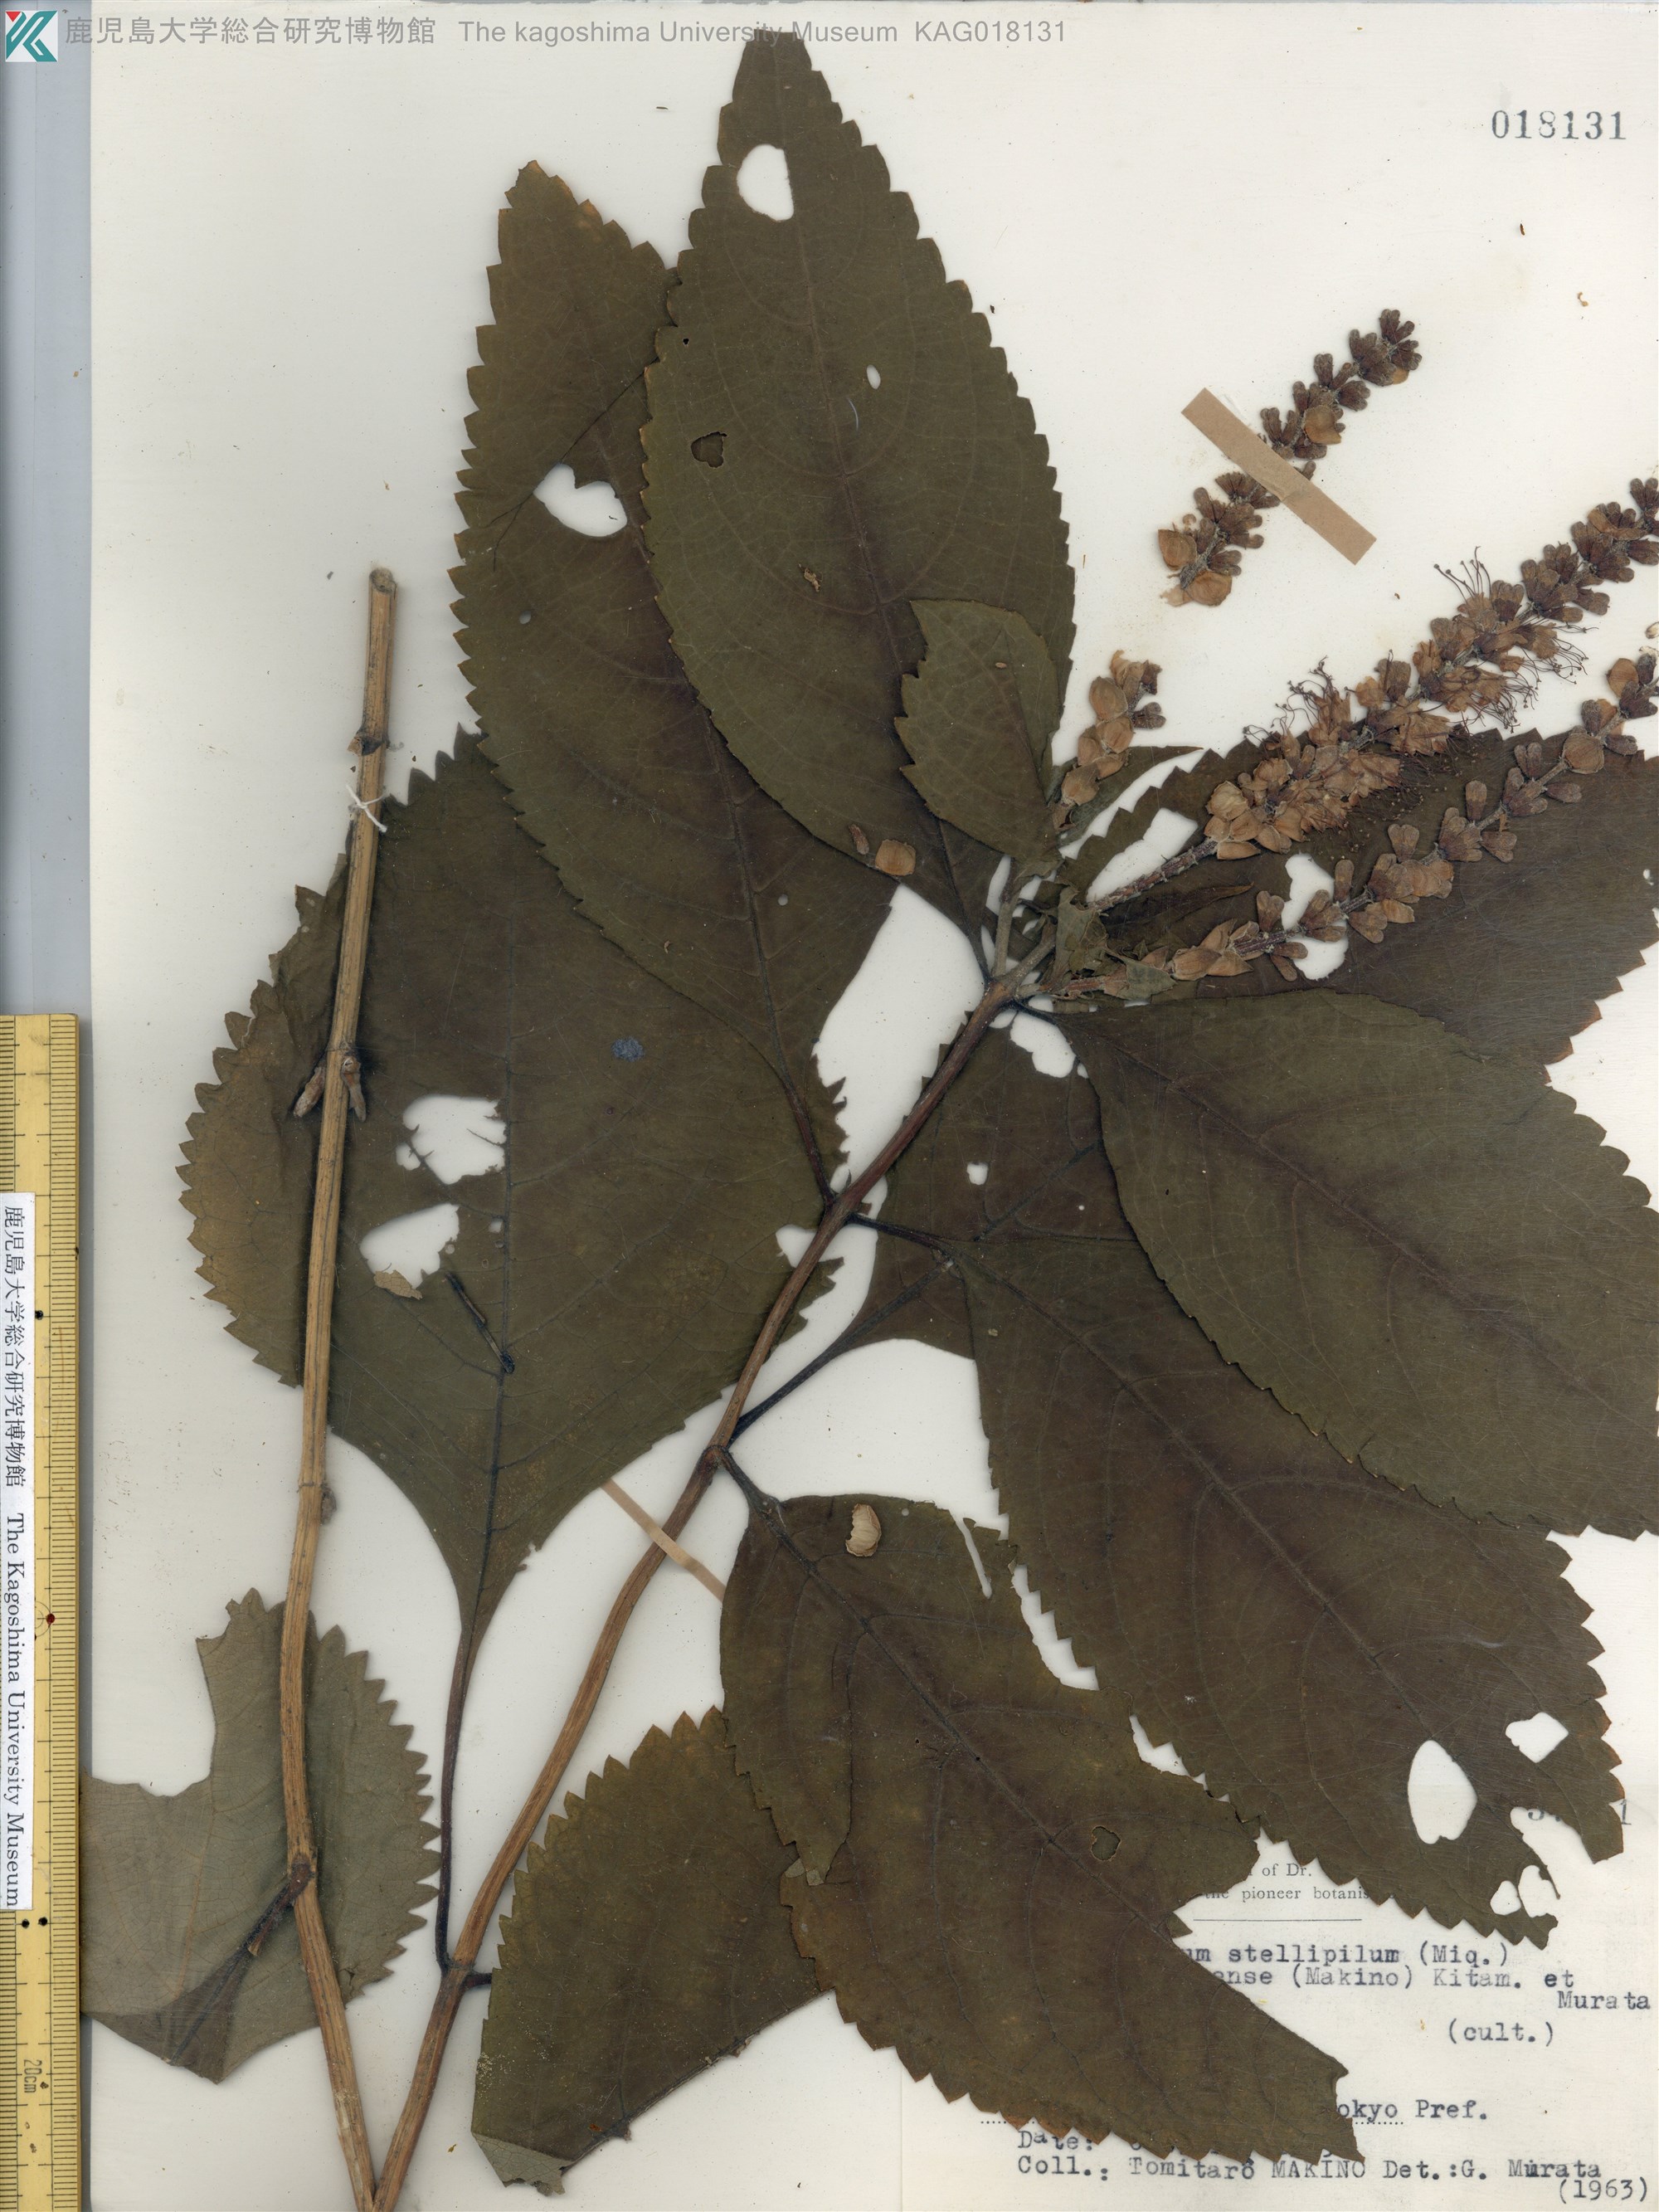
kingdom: Plantae
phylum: Tracheophyta
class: Magnoliopsida
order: Lamiales
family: Lamiaceae
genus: Comanthosphace
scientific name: Comanthosphace japonica
